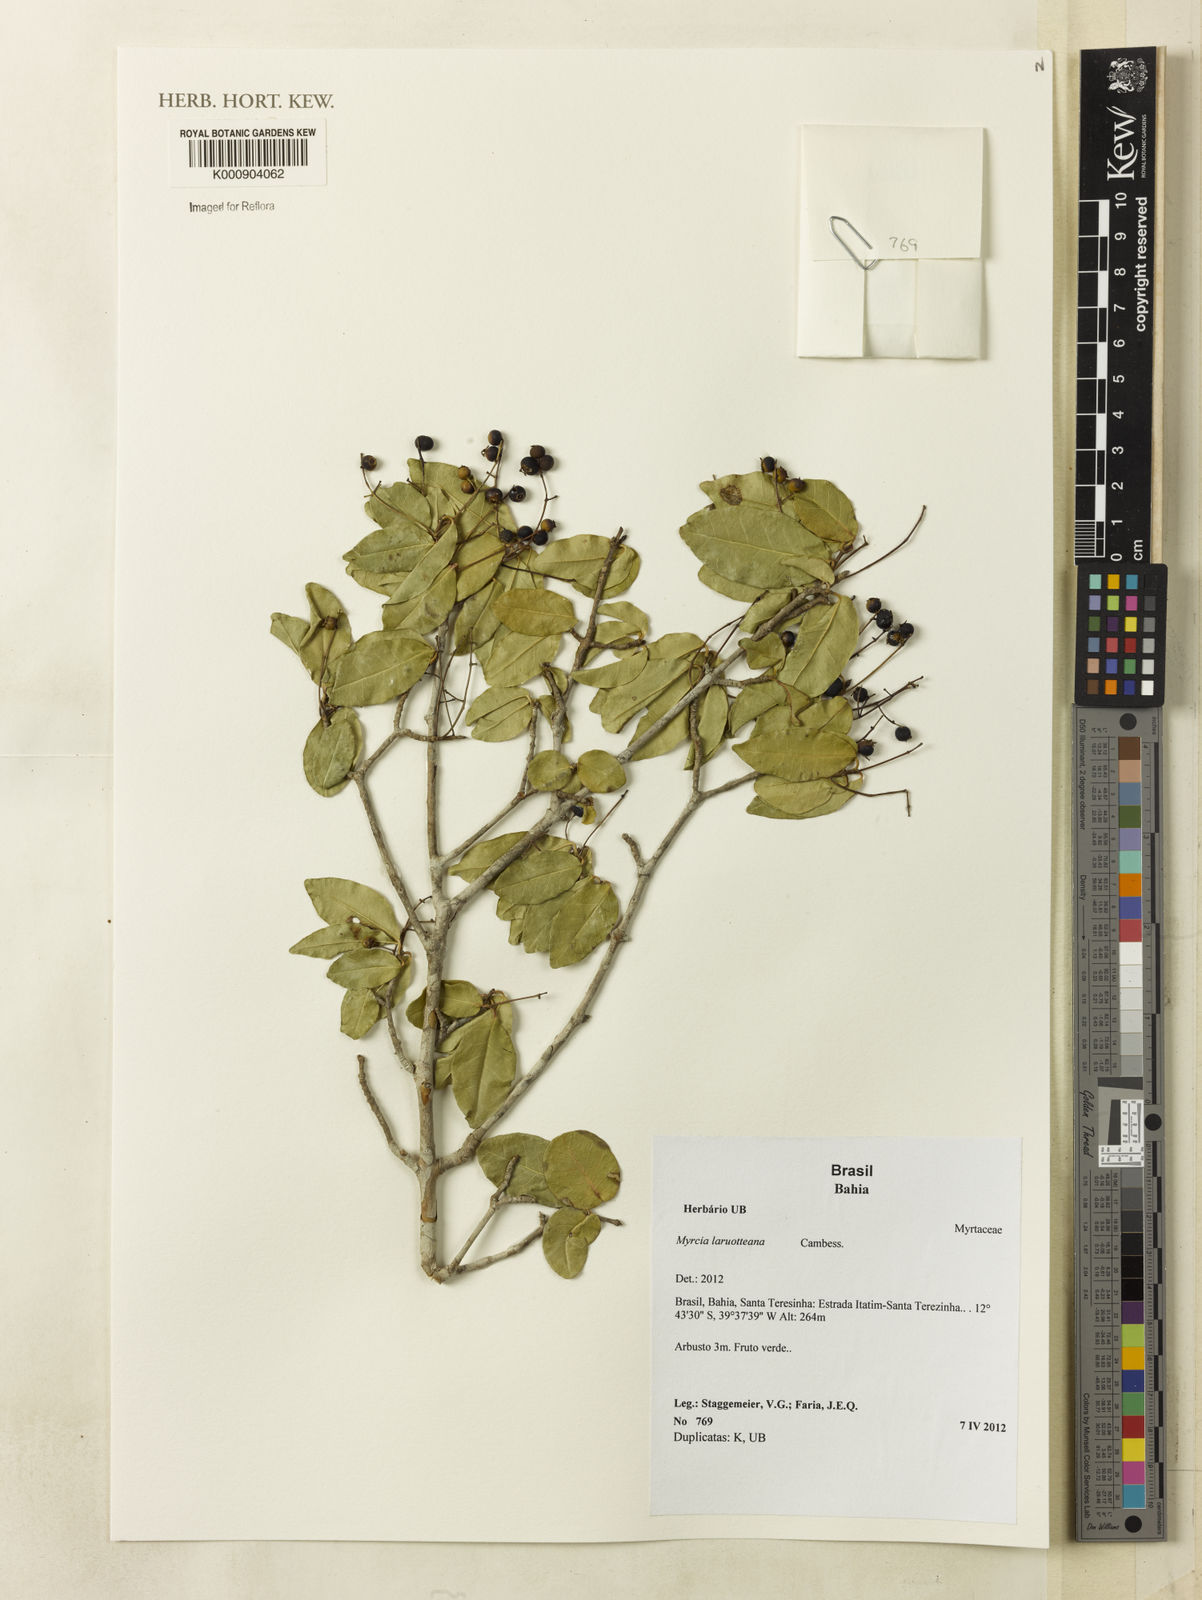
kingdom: Plantae
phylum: Tracheophyta
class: Magnoliopsida
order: Myrtales
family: Myrtaceae
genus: Myrcia
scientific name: Myrcia laruotteana
